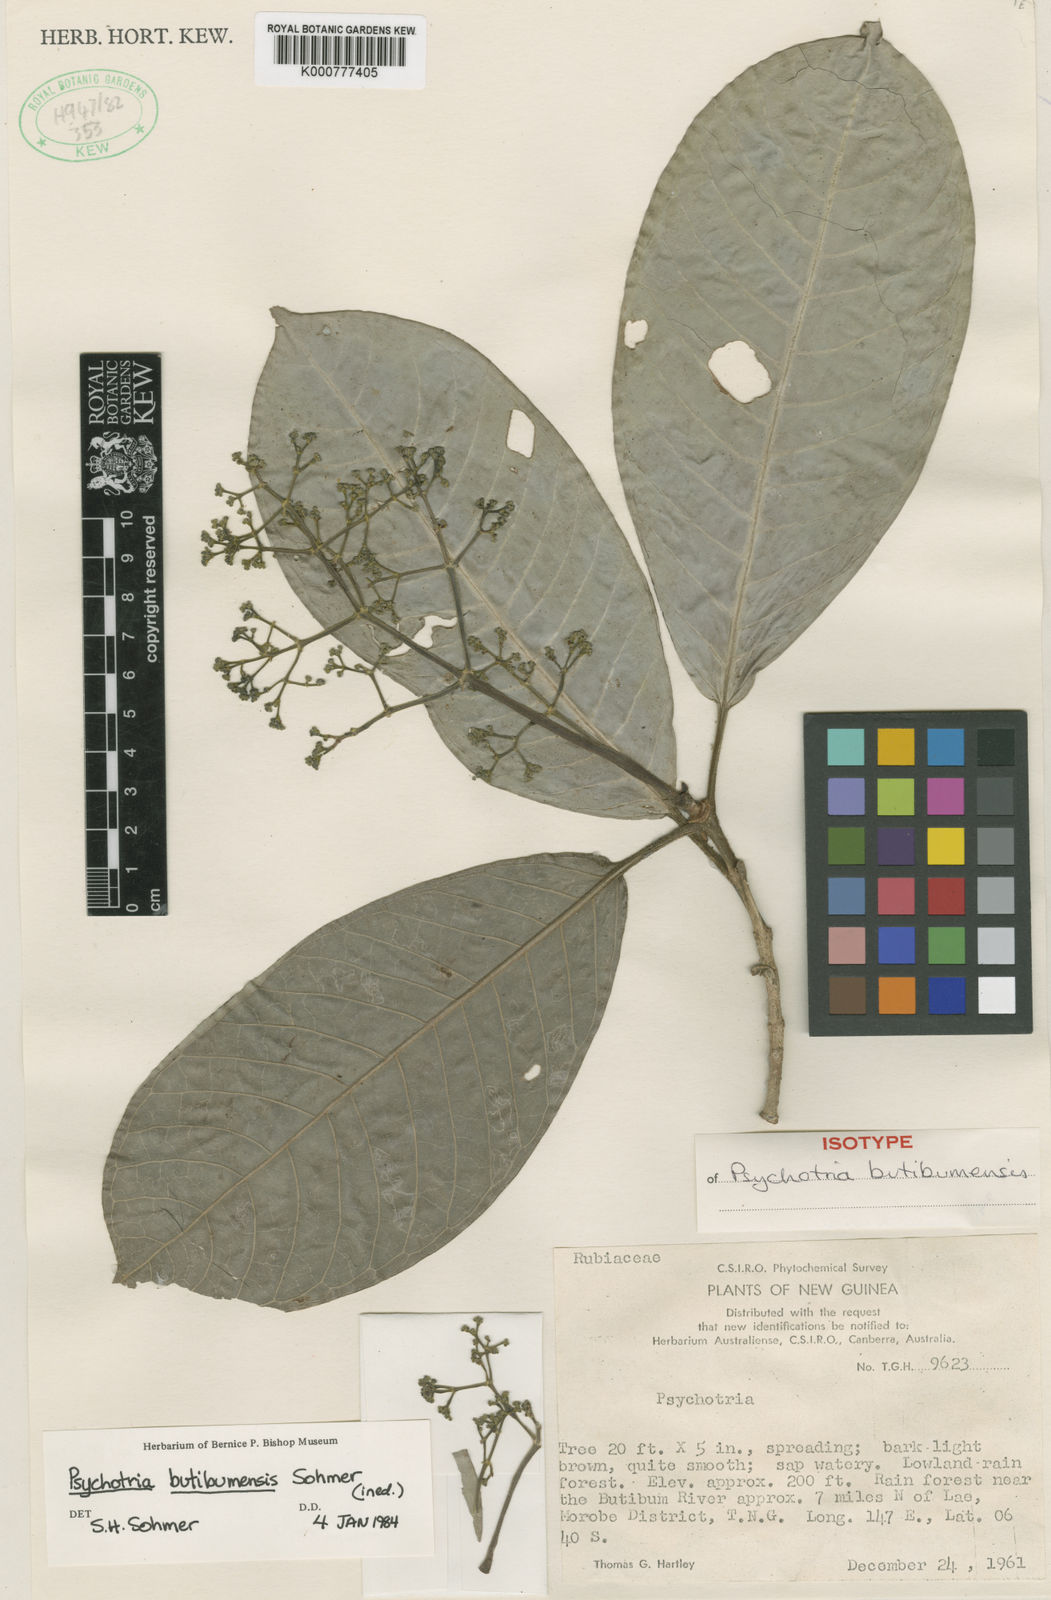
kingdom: Plantae
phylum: Tracheophyta
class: Magnoliopsida
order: Gentianales
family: Rubiaceae
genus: Psychotria
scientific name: Psychotria butibumensis
